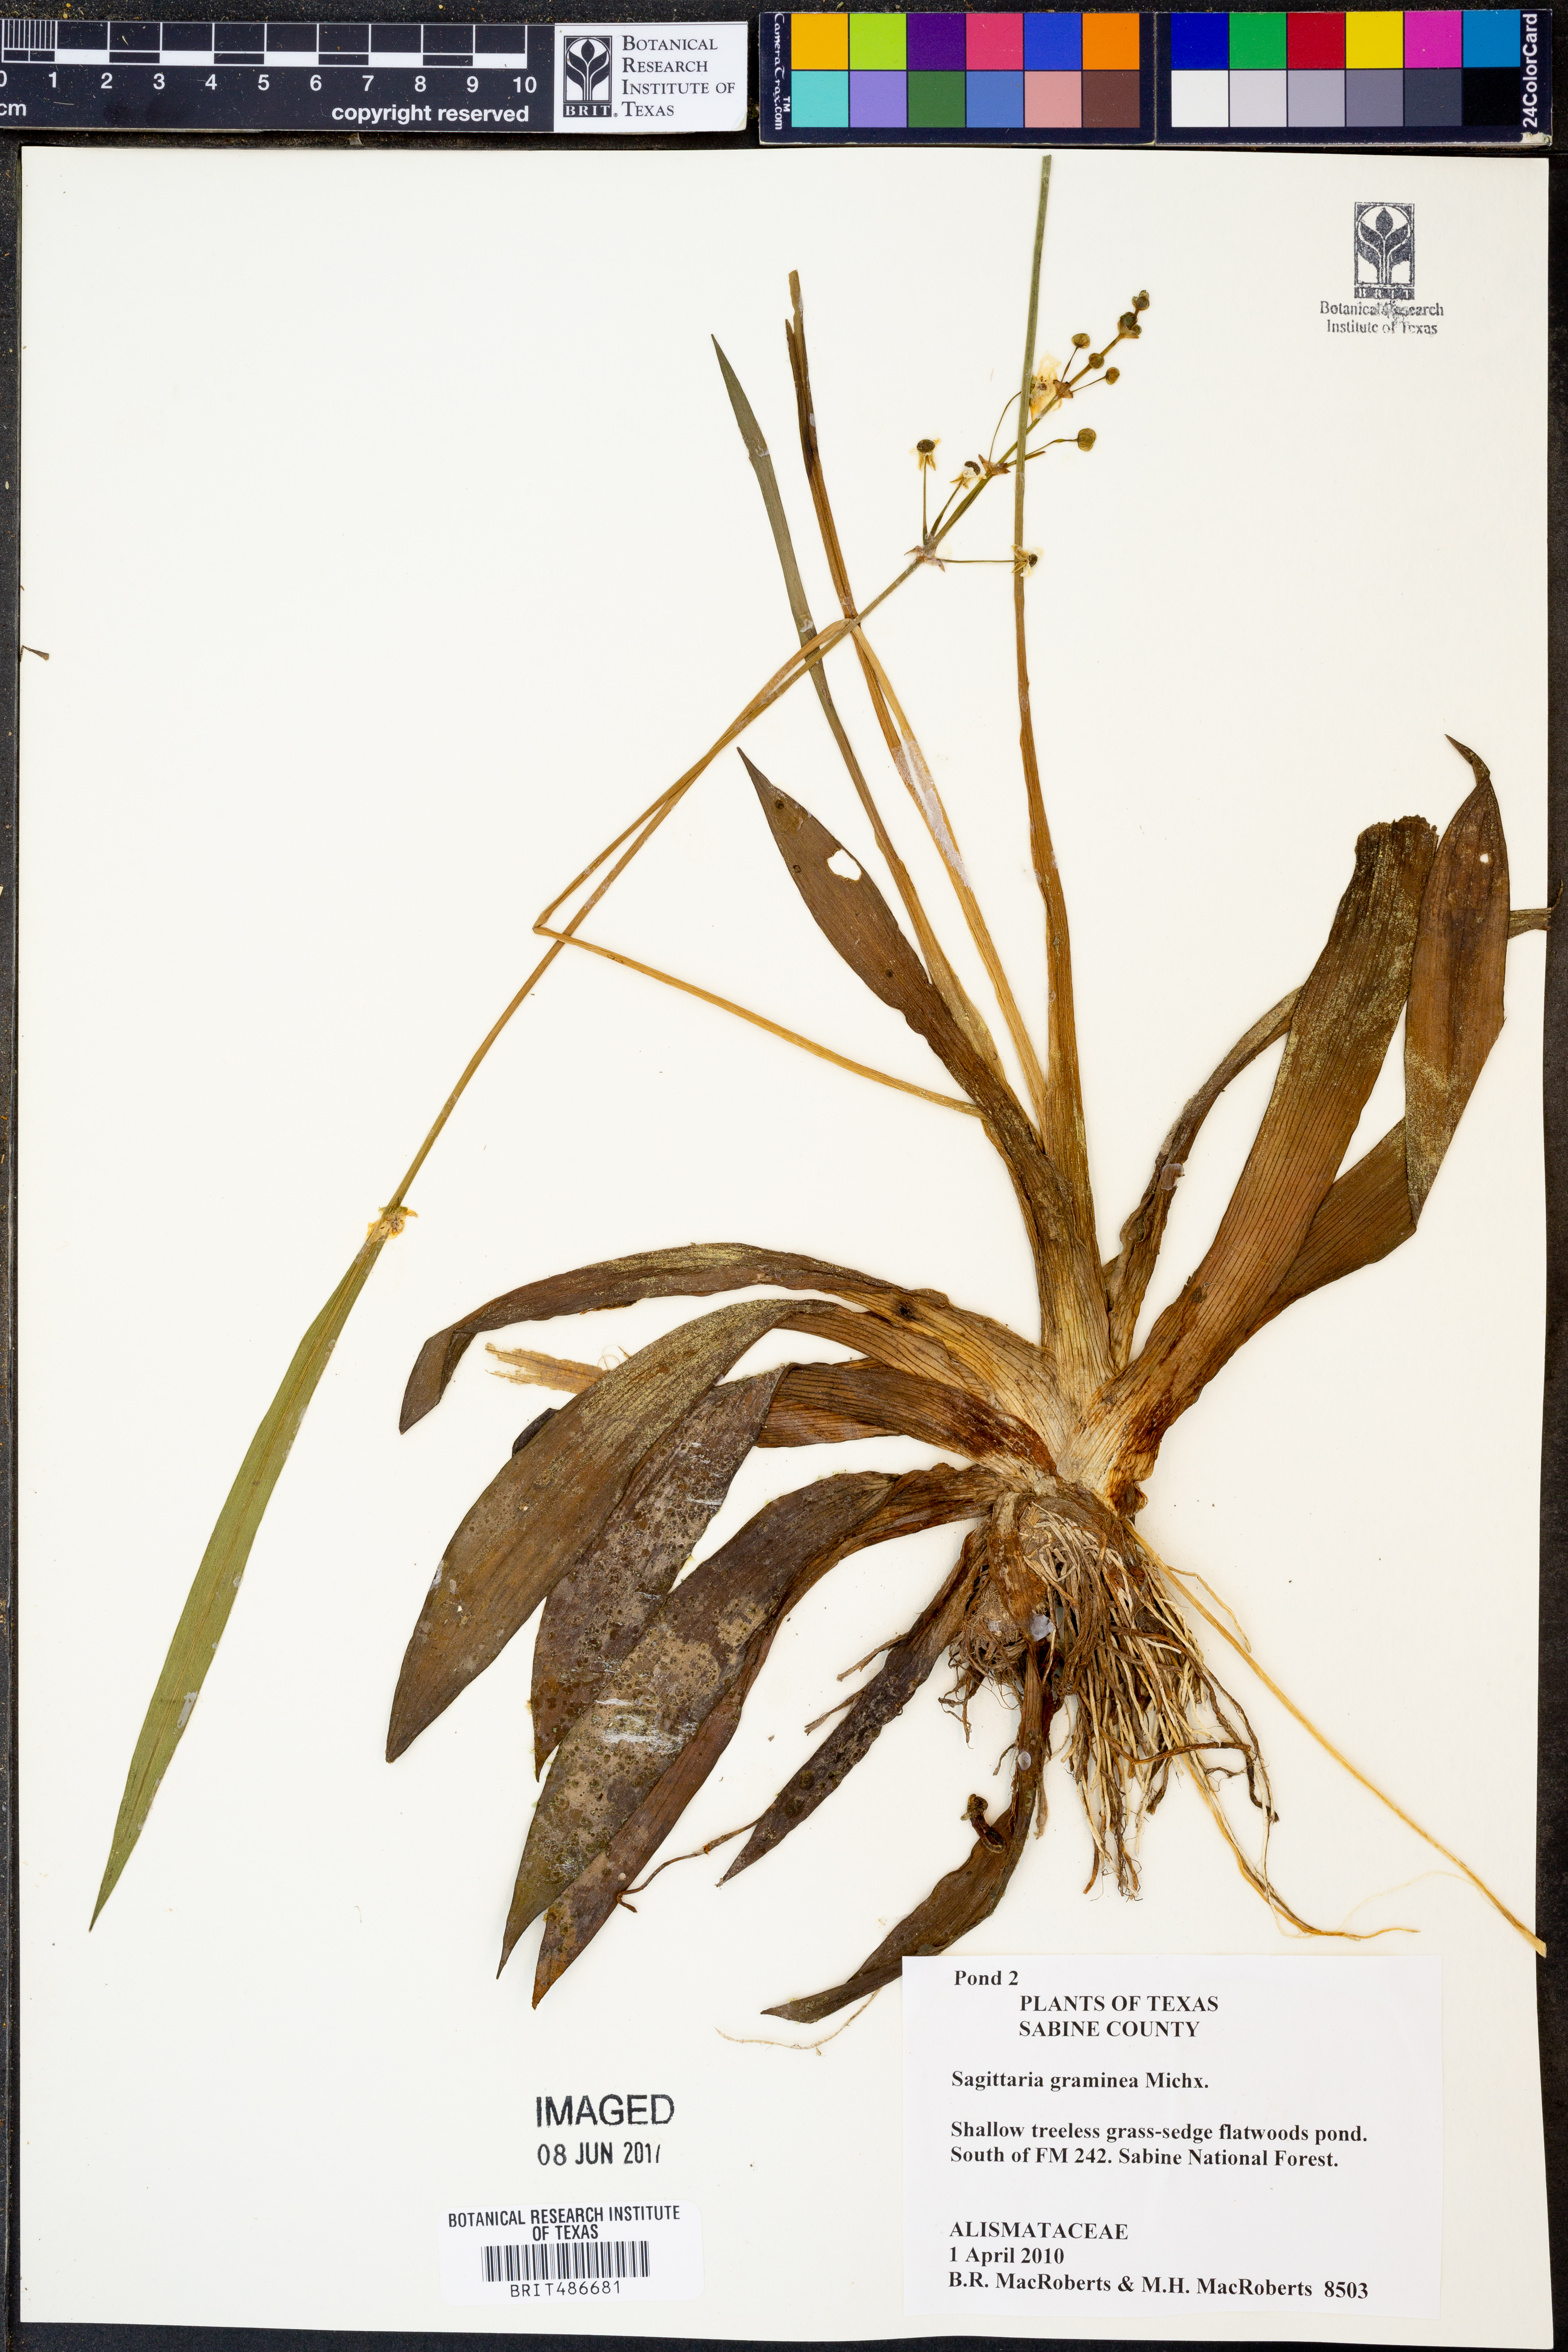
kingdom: Plantae
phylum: Tracheophyta
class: Liliopsida
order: Alismatales
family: Alismataceae
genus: Sagittaria
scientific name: Sagittaria graminea
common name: Grass-leaved arrowhead
